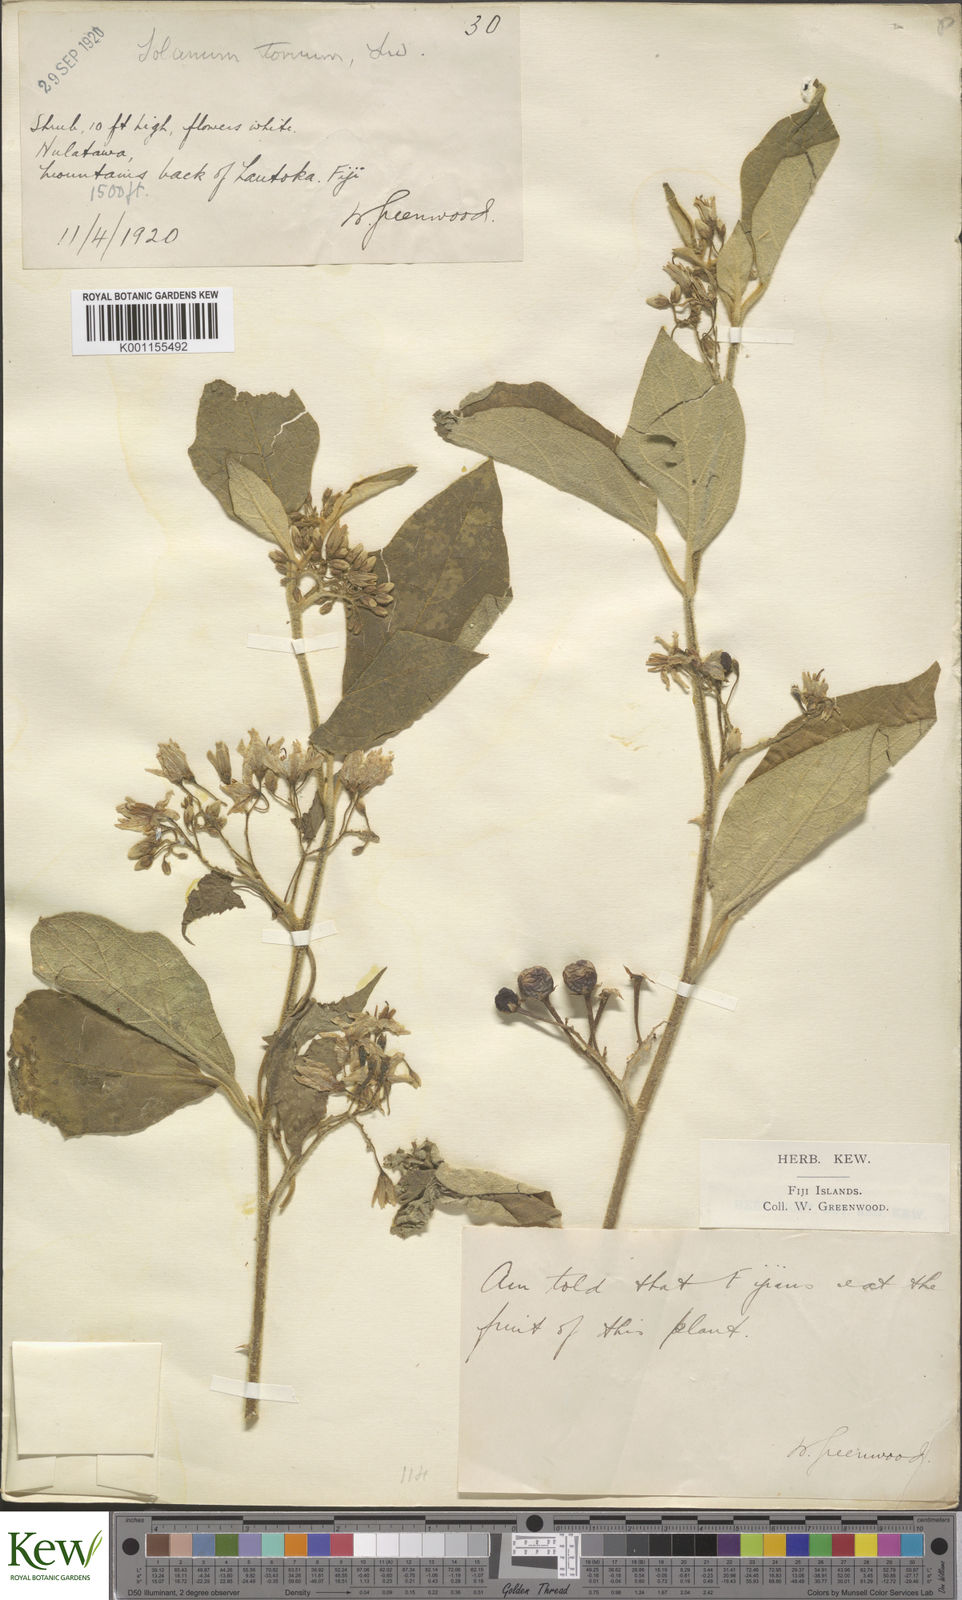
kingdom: Plantae
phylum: Tracheophyta
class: Magnoliopsida
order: Solanales
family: Solanaceae
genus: Solanum
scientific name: Solanum torvum
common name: Turkey berry
